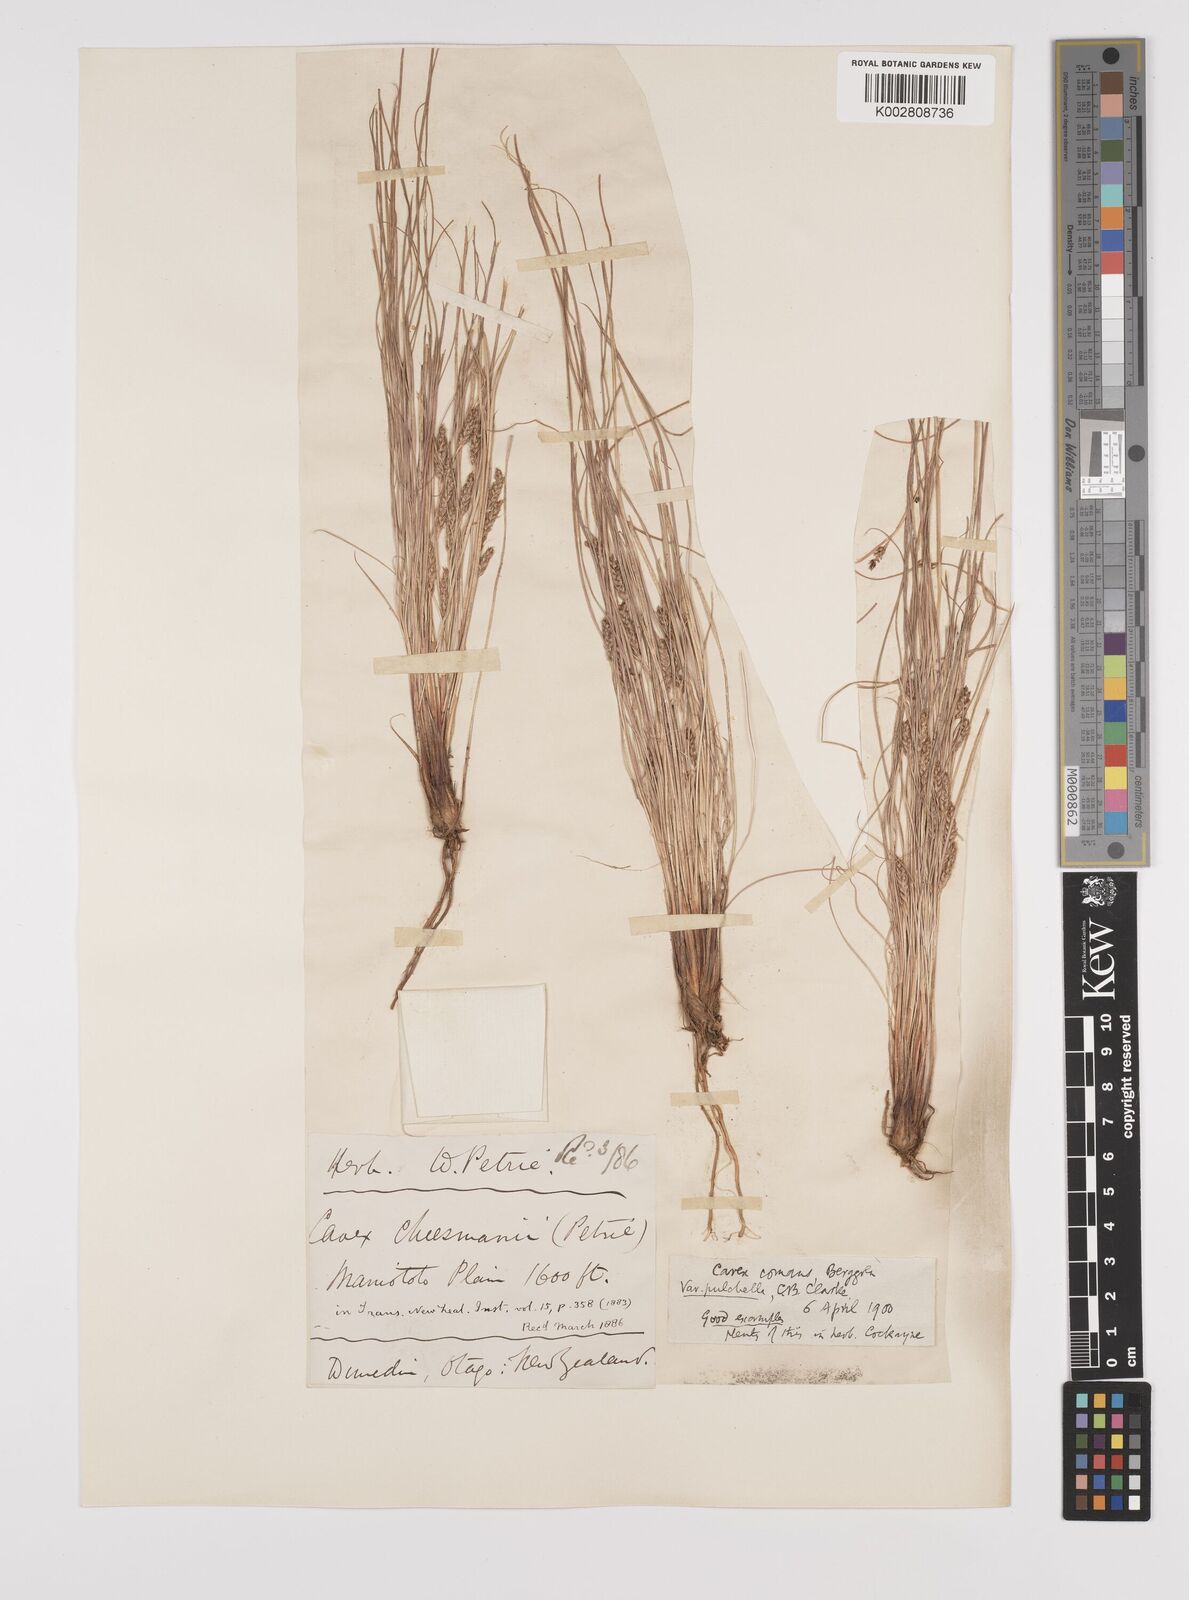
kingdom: Plantae
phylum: Tracheophyta
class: Liliopsida
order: Poales
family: Cyperaceae
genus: Carex
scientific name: Carex comans
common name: Longwood tussock
